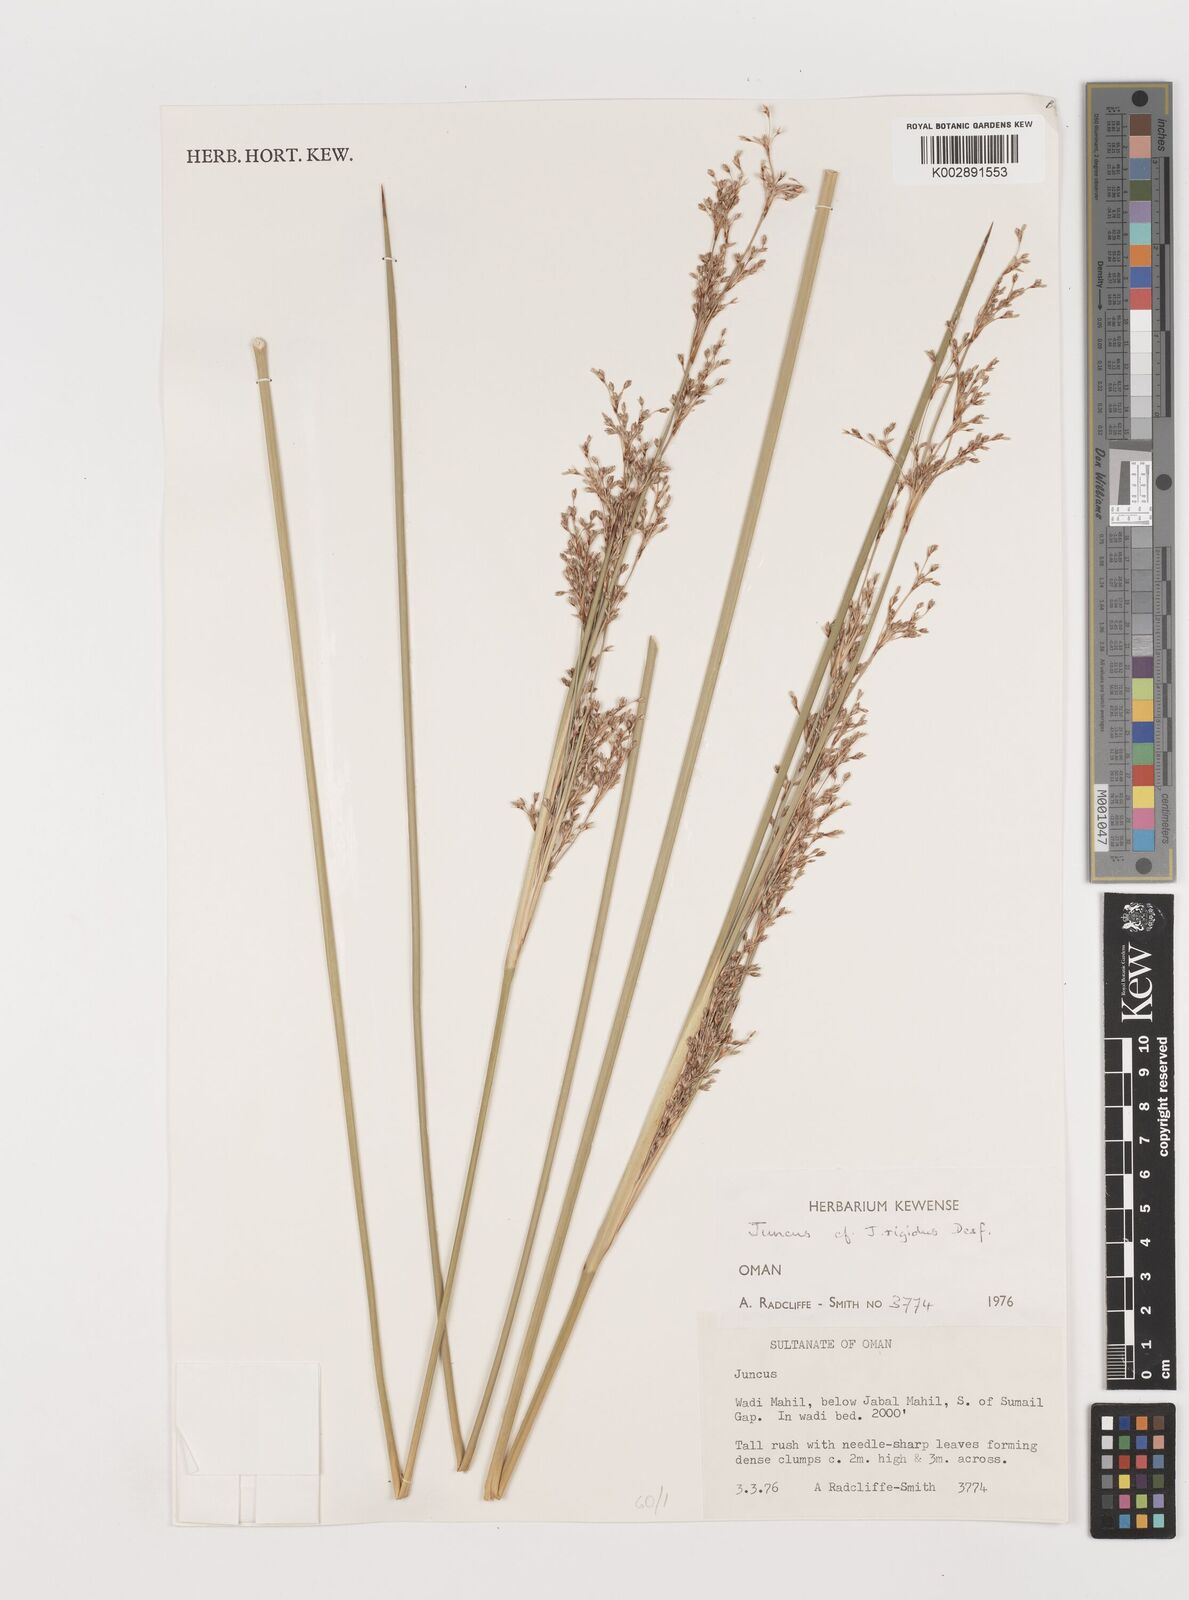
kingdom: Plantae
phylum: Tracheophyta
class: Liliopsida
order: Poales
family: Juncaceae
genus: Juncus
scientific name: Juncus rigidus
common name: Hard sea rush
